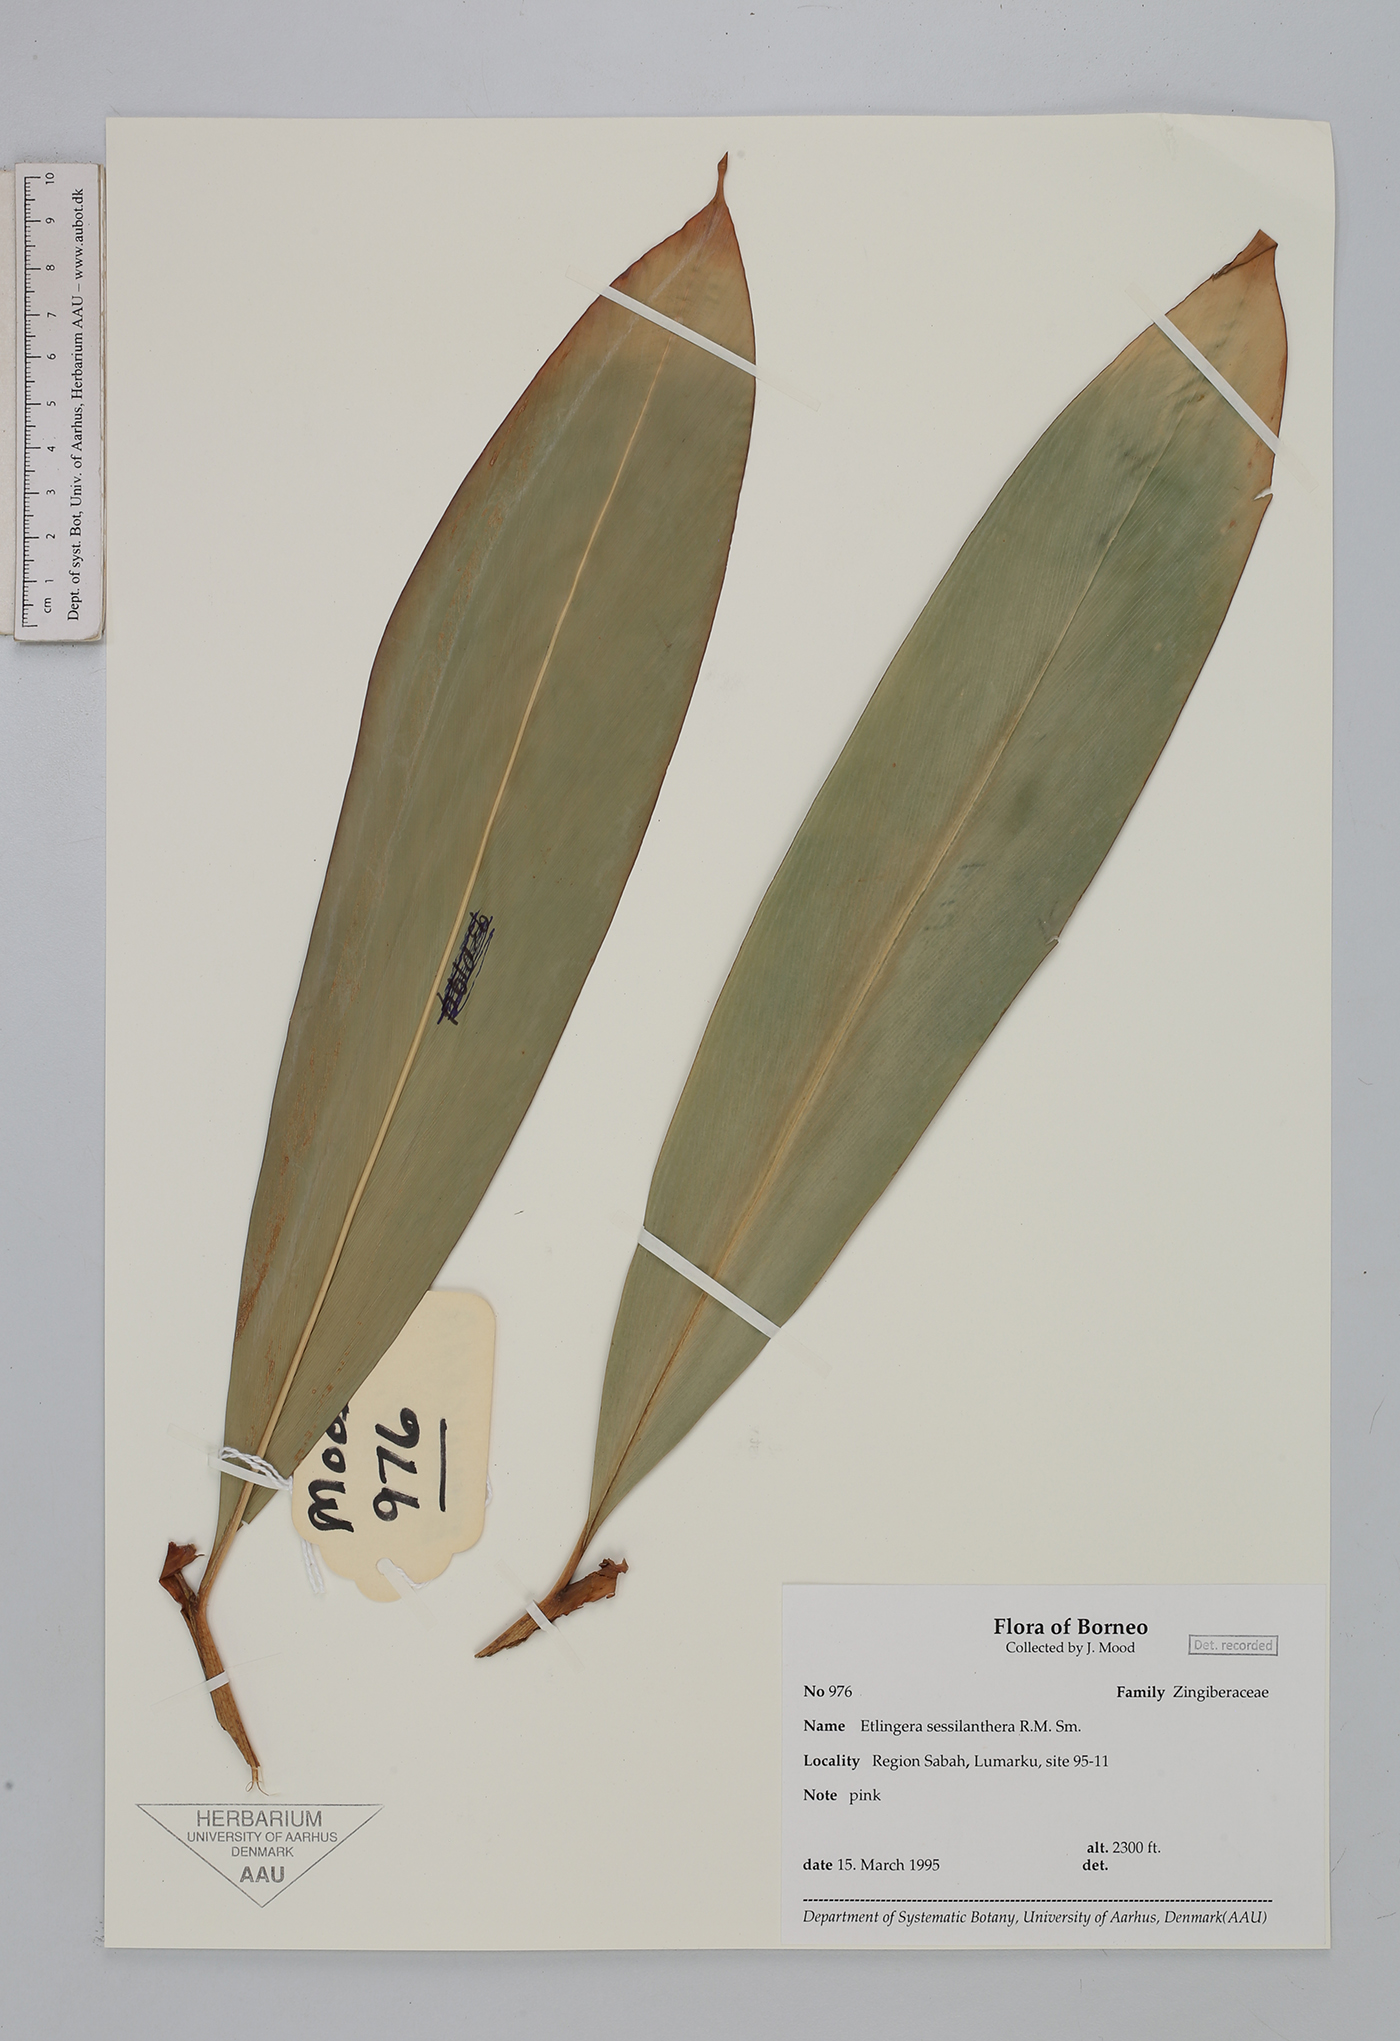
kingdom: Plantae
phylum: Tracheophyta
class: Liliopsida
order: Zingiberales
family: Zingiberaceae
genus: Etlingera
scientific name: Etlingera sessilanthera
